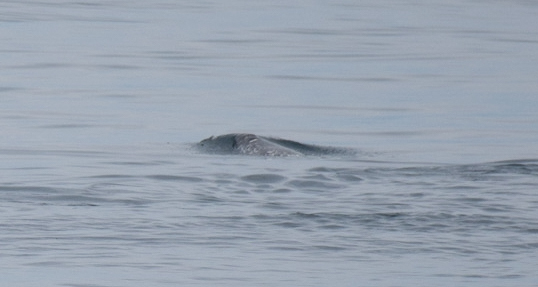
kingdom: Animalia
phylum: Chordata
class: Mammalia
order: Cetacea
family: Monodontidae
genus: Monodon
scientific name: Monodon monoceros
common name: Narwhal
